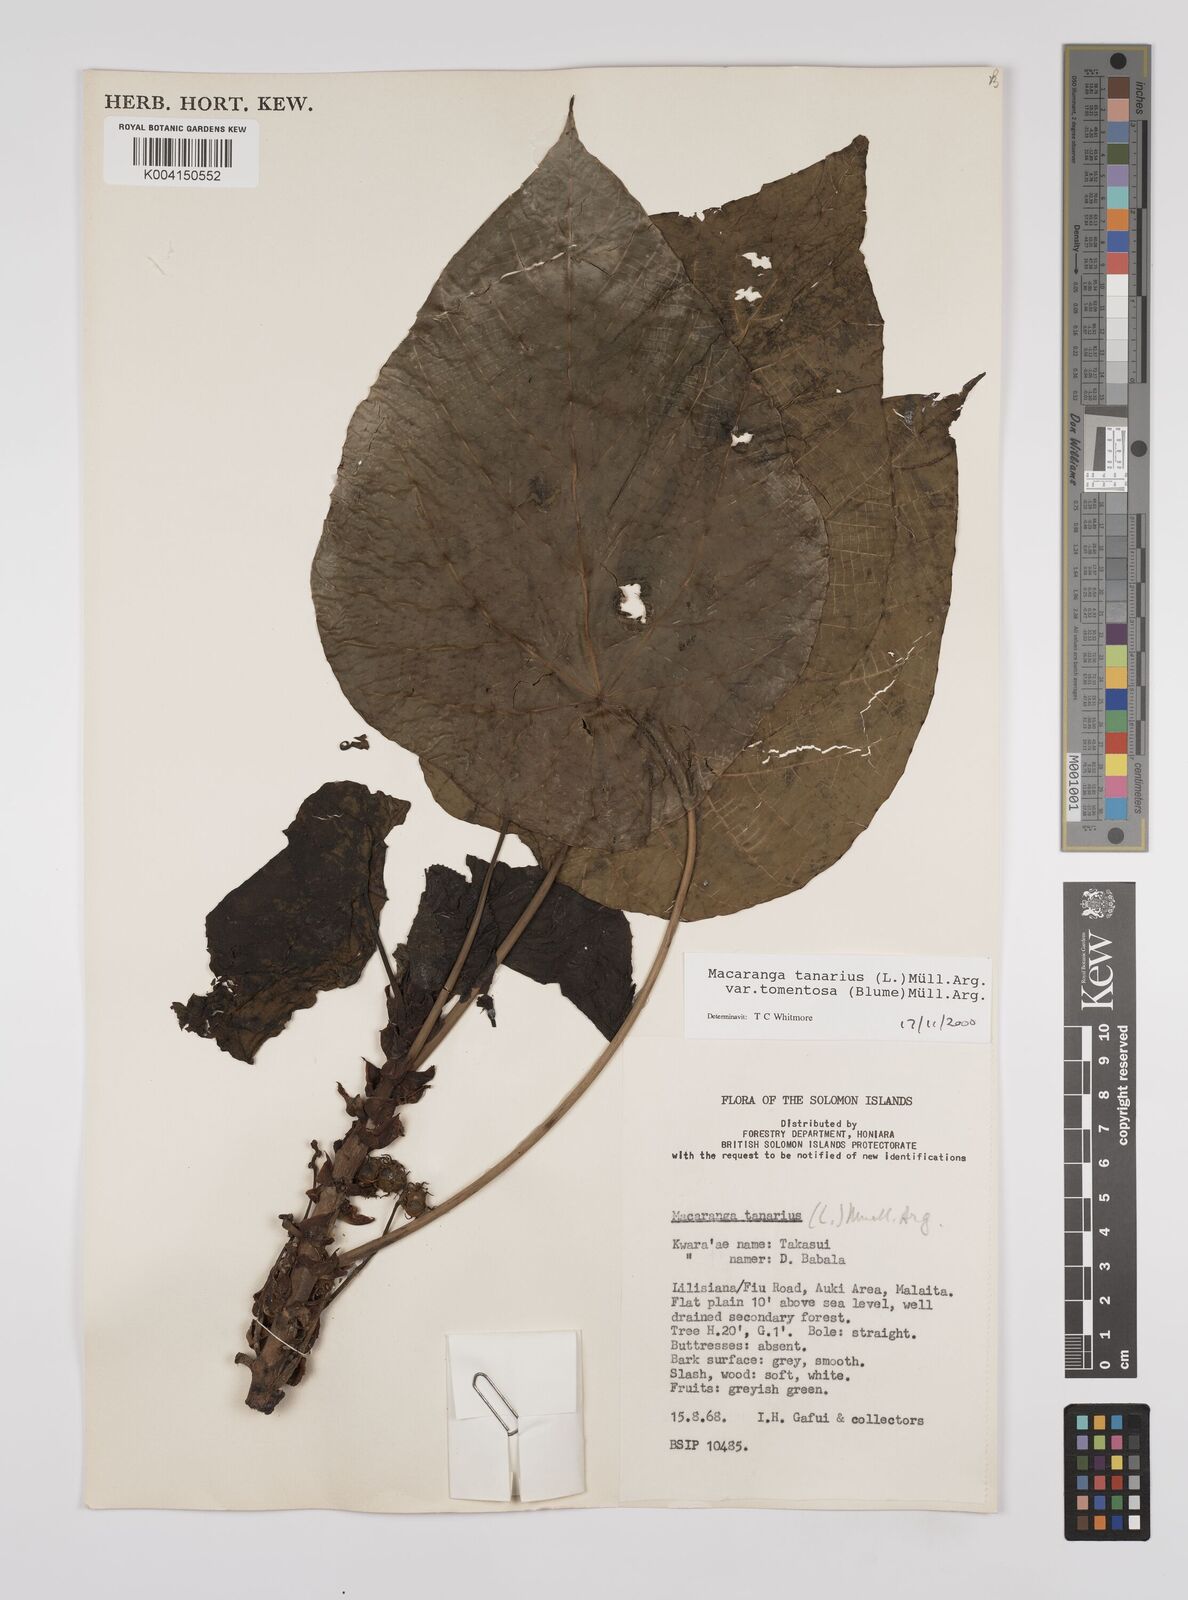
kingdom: Plantae
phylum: Tracheophyta
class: Magnoliopsida
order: Malpighiales
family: Euphorbiaceae
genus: Macaranga
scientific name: Macaranga tanarius
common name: Parasol leaf tree
